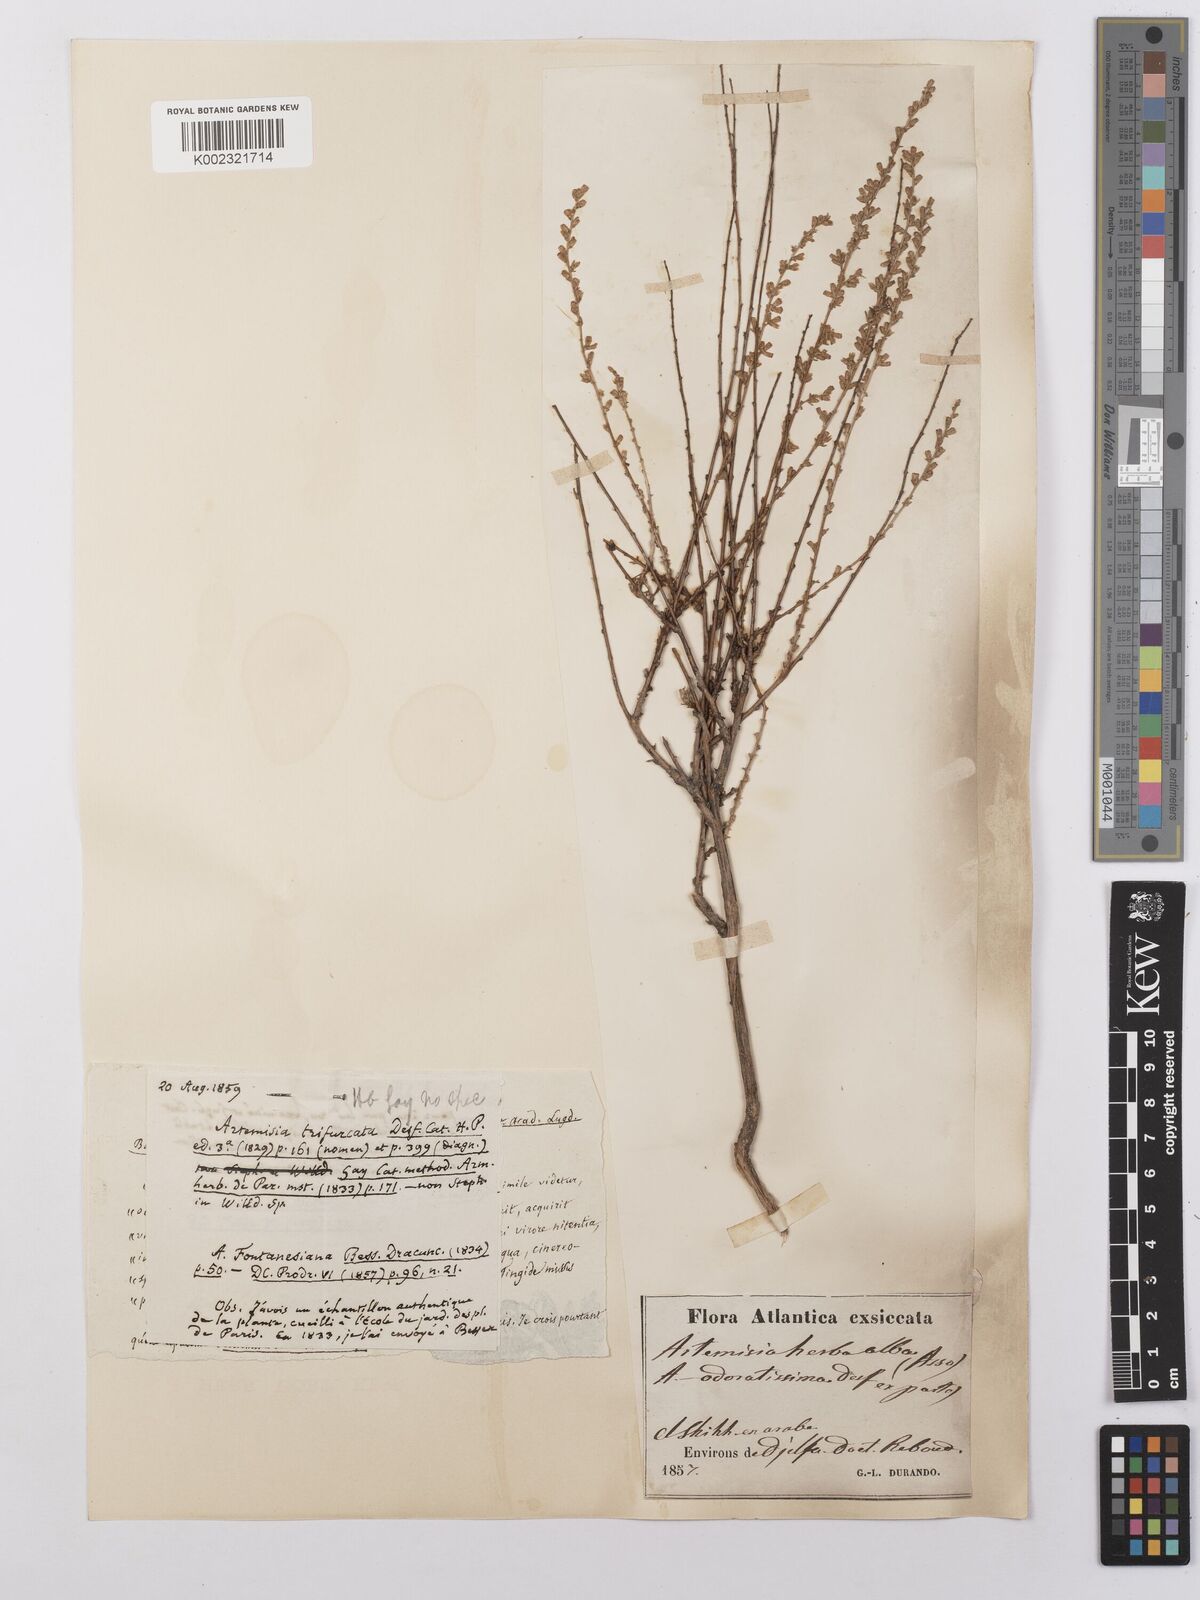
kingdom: Plantae
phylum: Tracheophyta
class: Magnoliopsida
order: Asterales
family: Asteraceae
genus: Artemisia
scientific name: Artemisia herba-alba
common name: White wormwood
